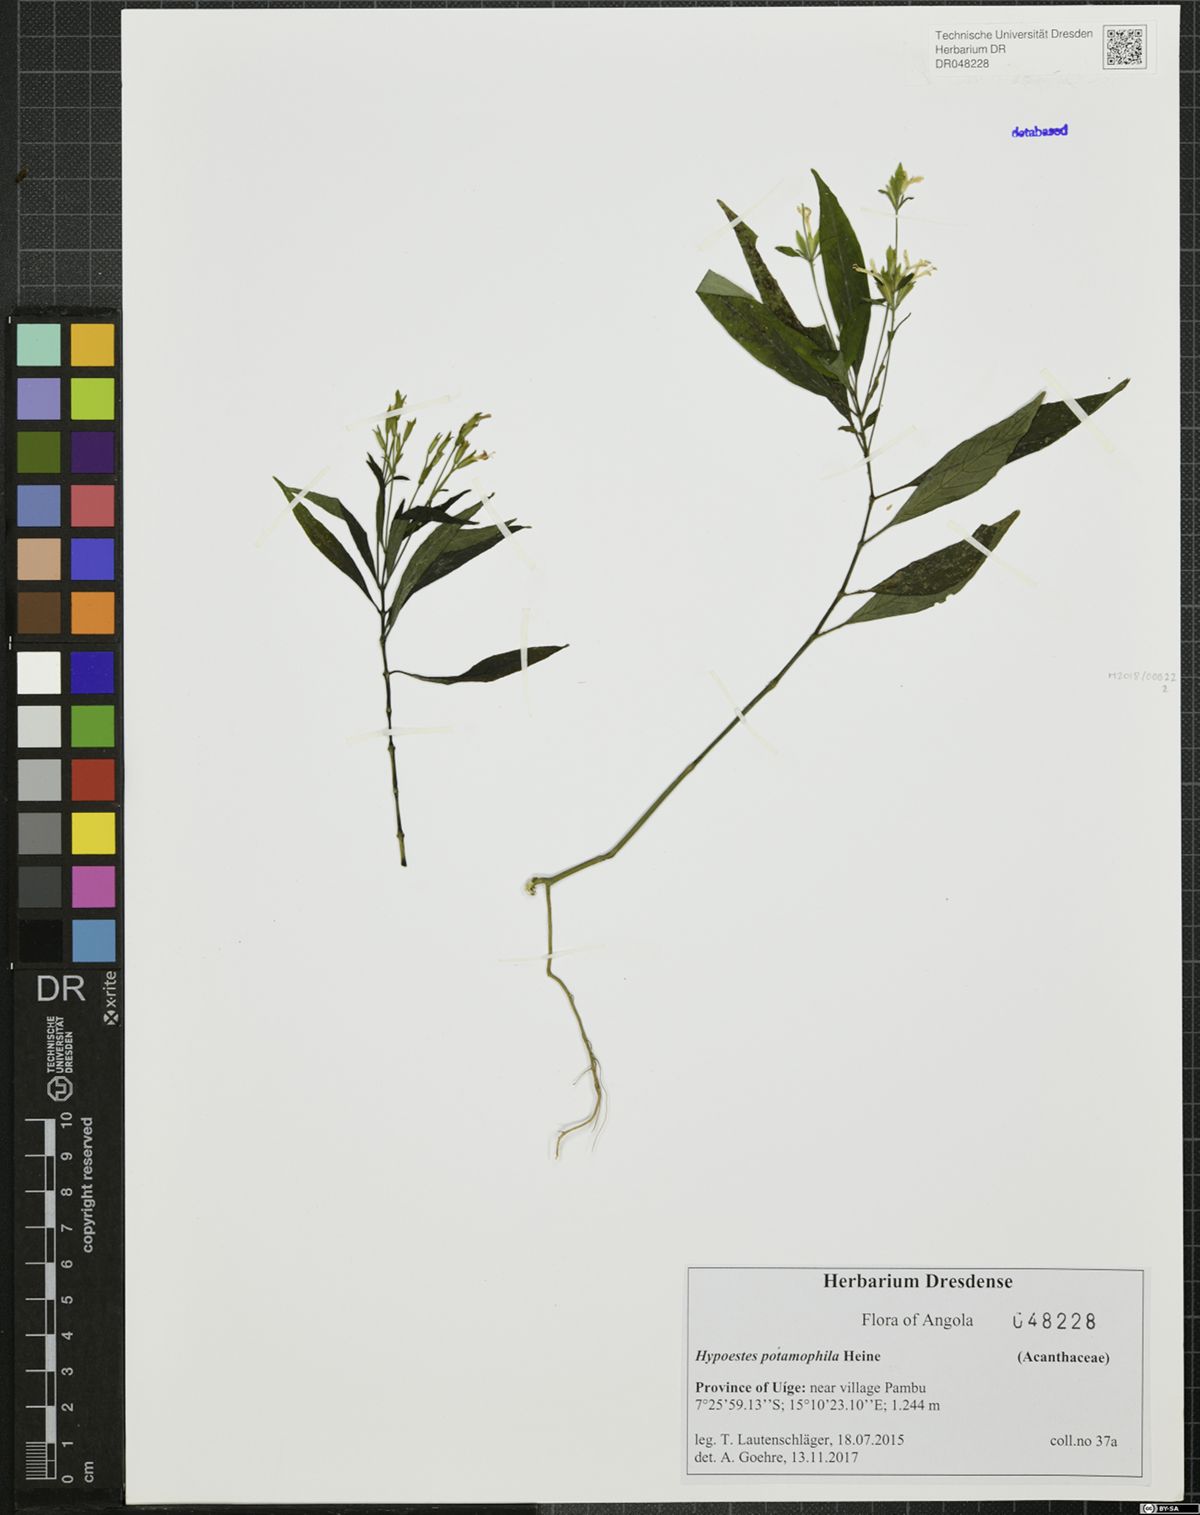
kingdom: Plantae
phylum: Tracheophyta
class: Magnoliopsida
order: Lamiales
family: Acanthaceae
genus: Hypoestes
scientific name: Hypoestes potamophila
